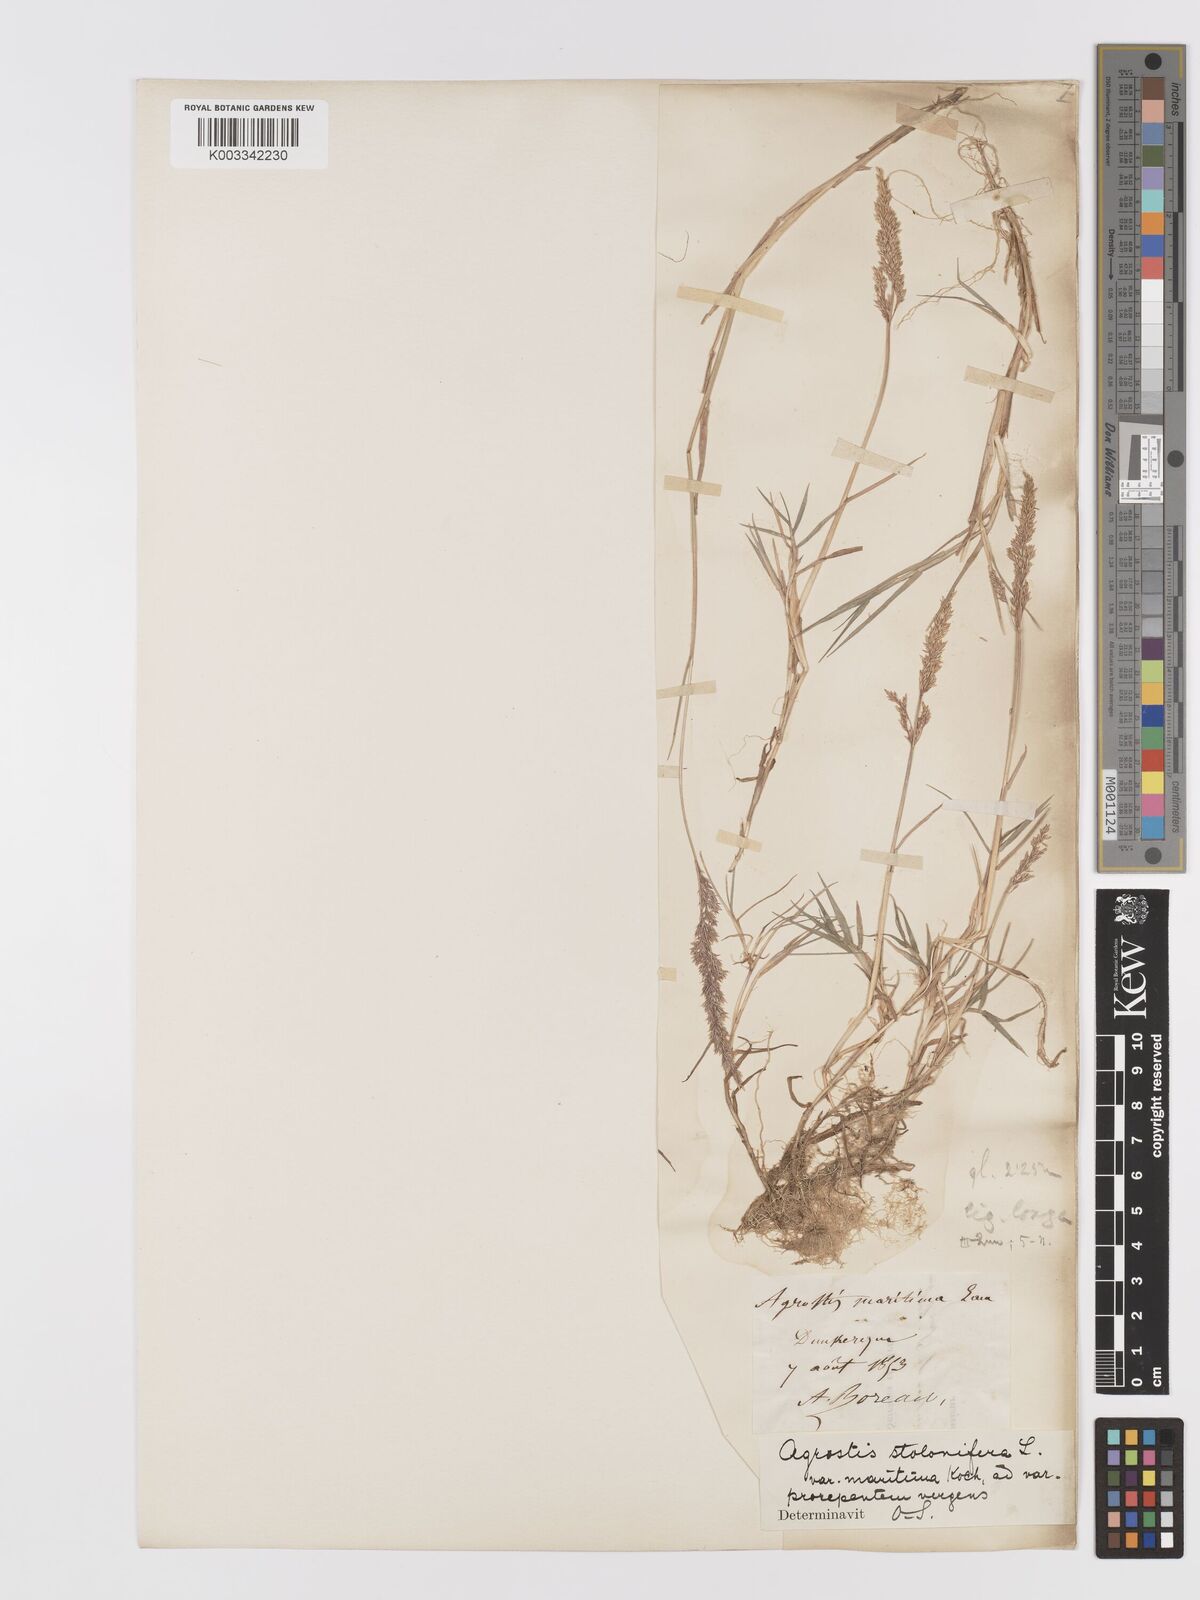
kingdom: Plantae
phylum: Tracheophyta
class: Liliopsida
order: Poales
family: Poaceae
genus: Agrostis
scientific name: Agrostis stolonifera
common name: Creeping bentgrass
